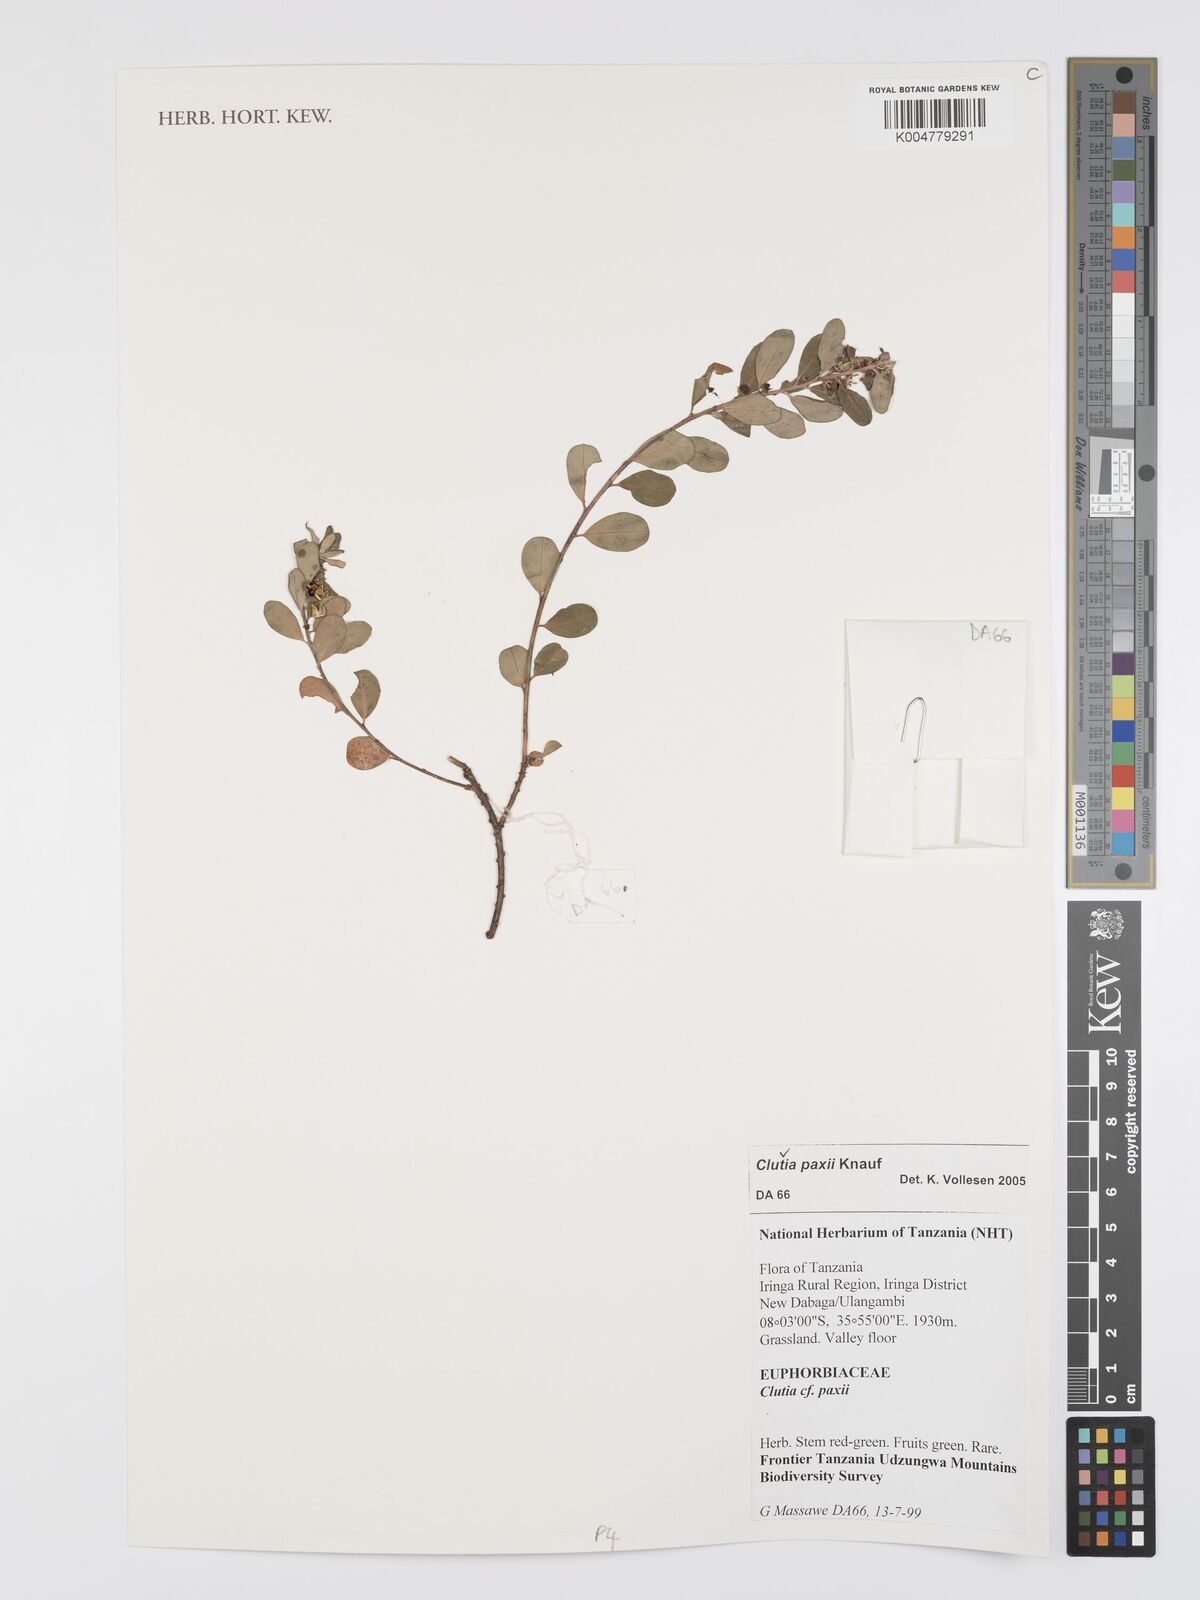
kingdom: Plantae
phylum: Tracheophyta
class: Magnoliopsida
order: Malpighiales
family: Peraceae
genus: Clutia
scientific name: Clutia paxii
